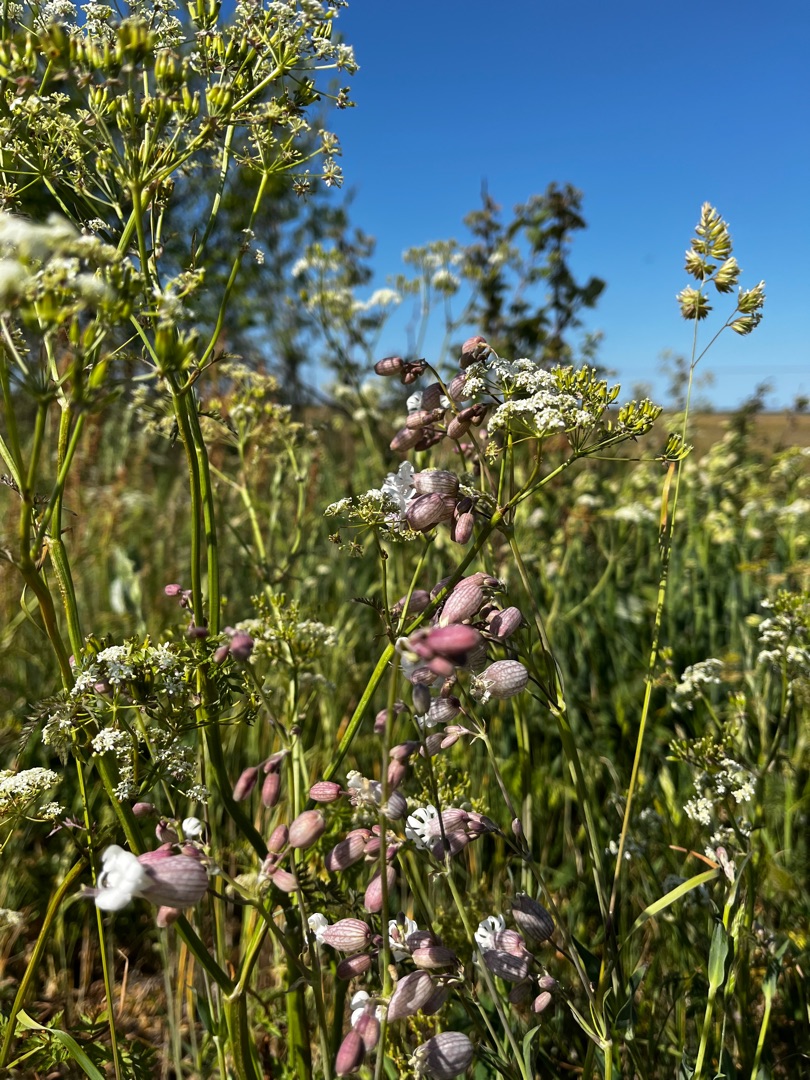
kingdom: Plantae
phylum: Tracheophyta
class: Magnoliopsida
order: Caryophyllales
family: Caryophyllaceae
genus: Silene
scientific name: Silene vulgaris
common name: Blæresmælde
